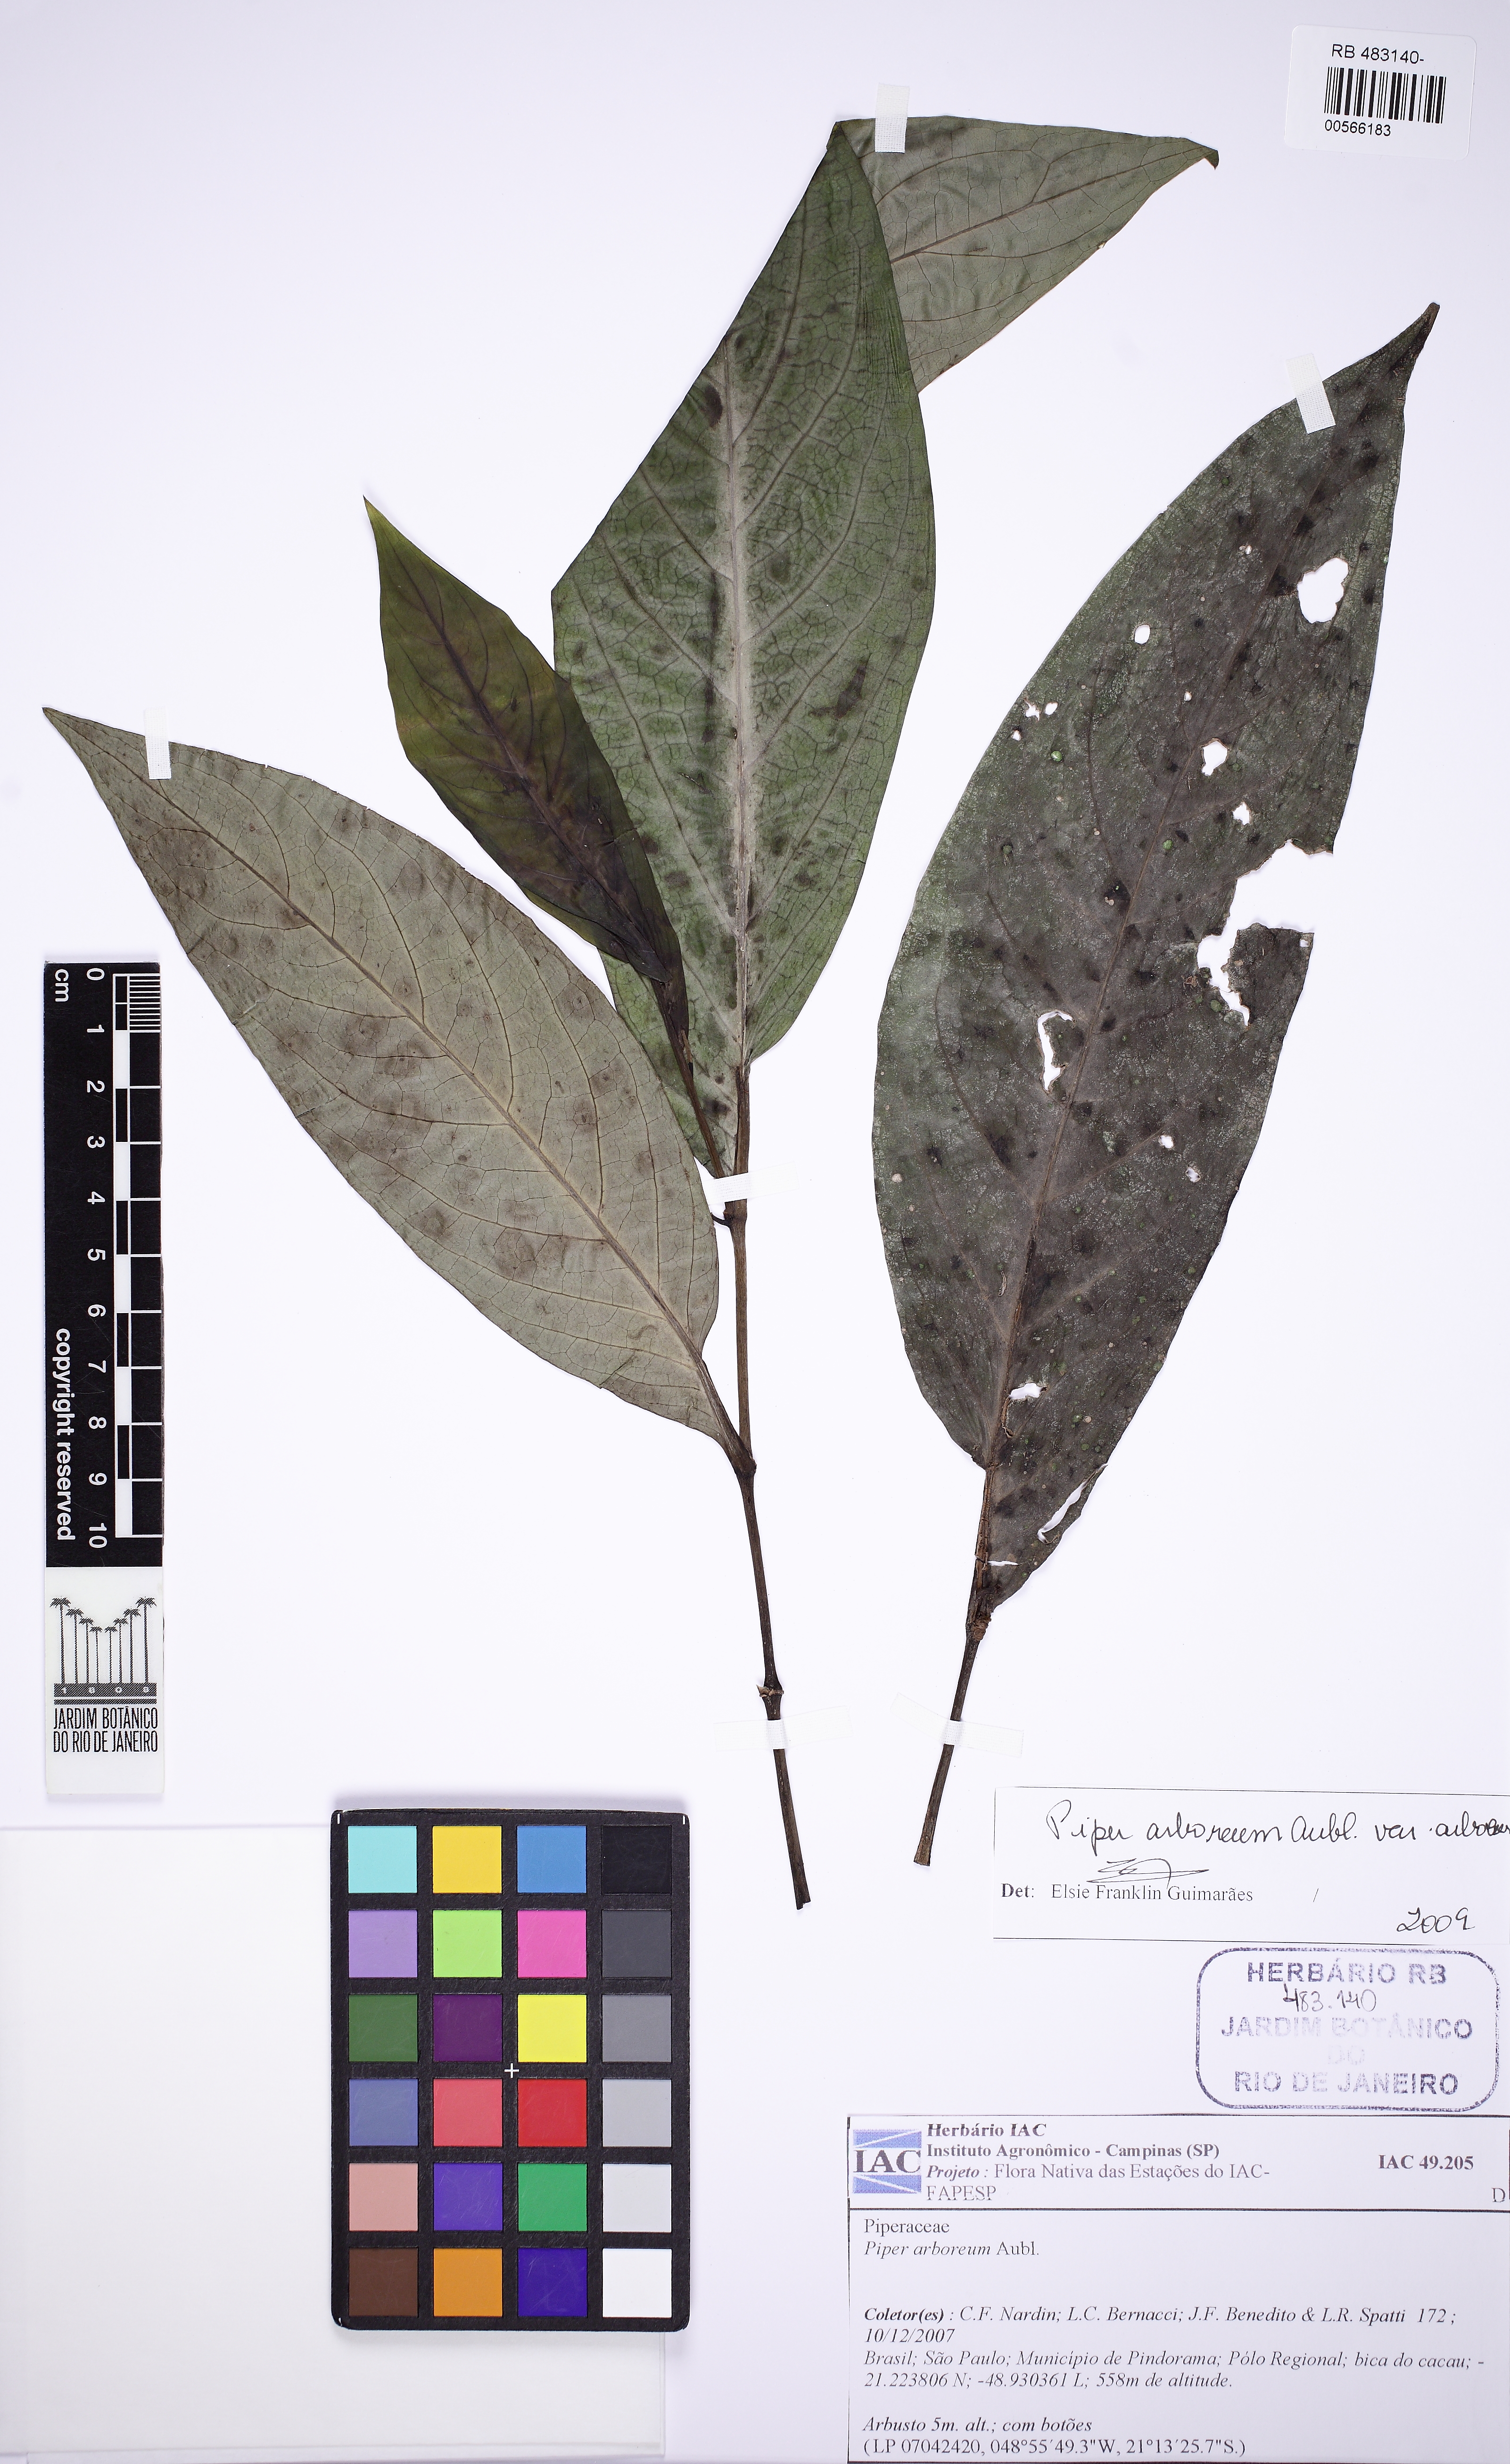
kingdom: Plantae
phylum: Tracheophyta
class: Magnoliopsida
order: Piperales
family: Piperaceae
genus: Piper
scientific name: Piper arboreum
